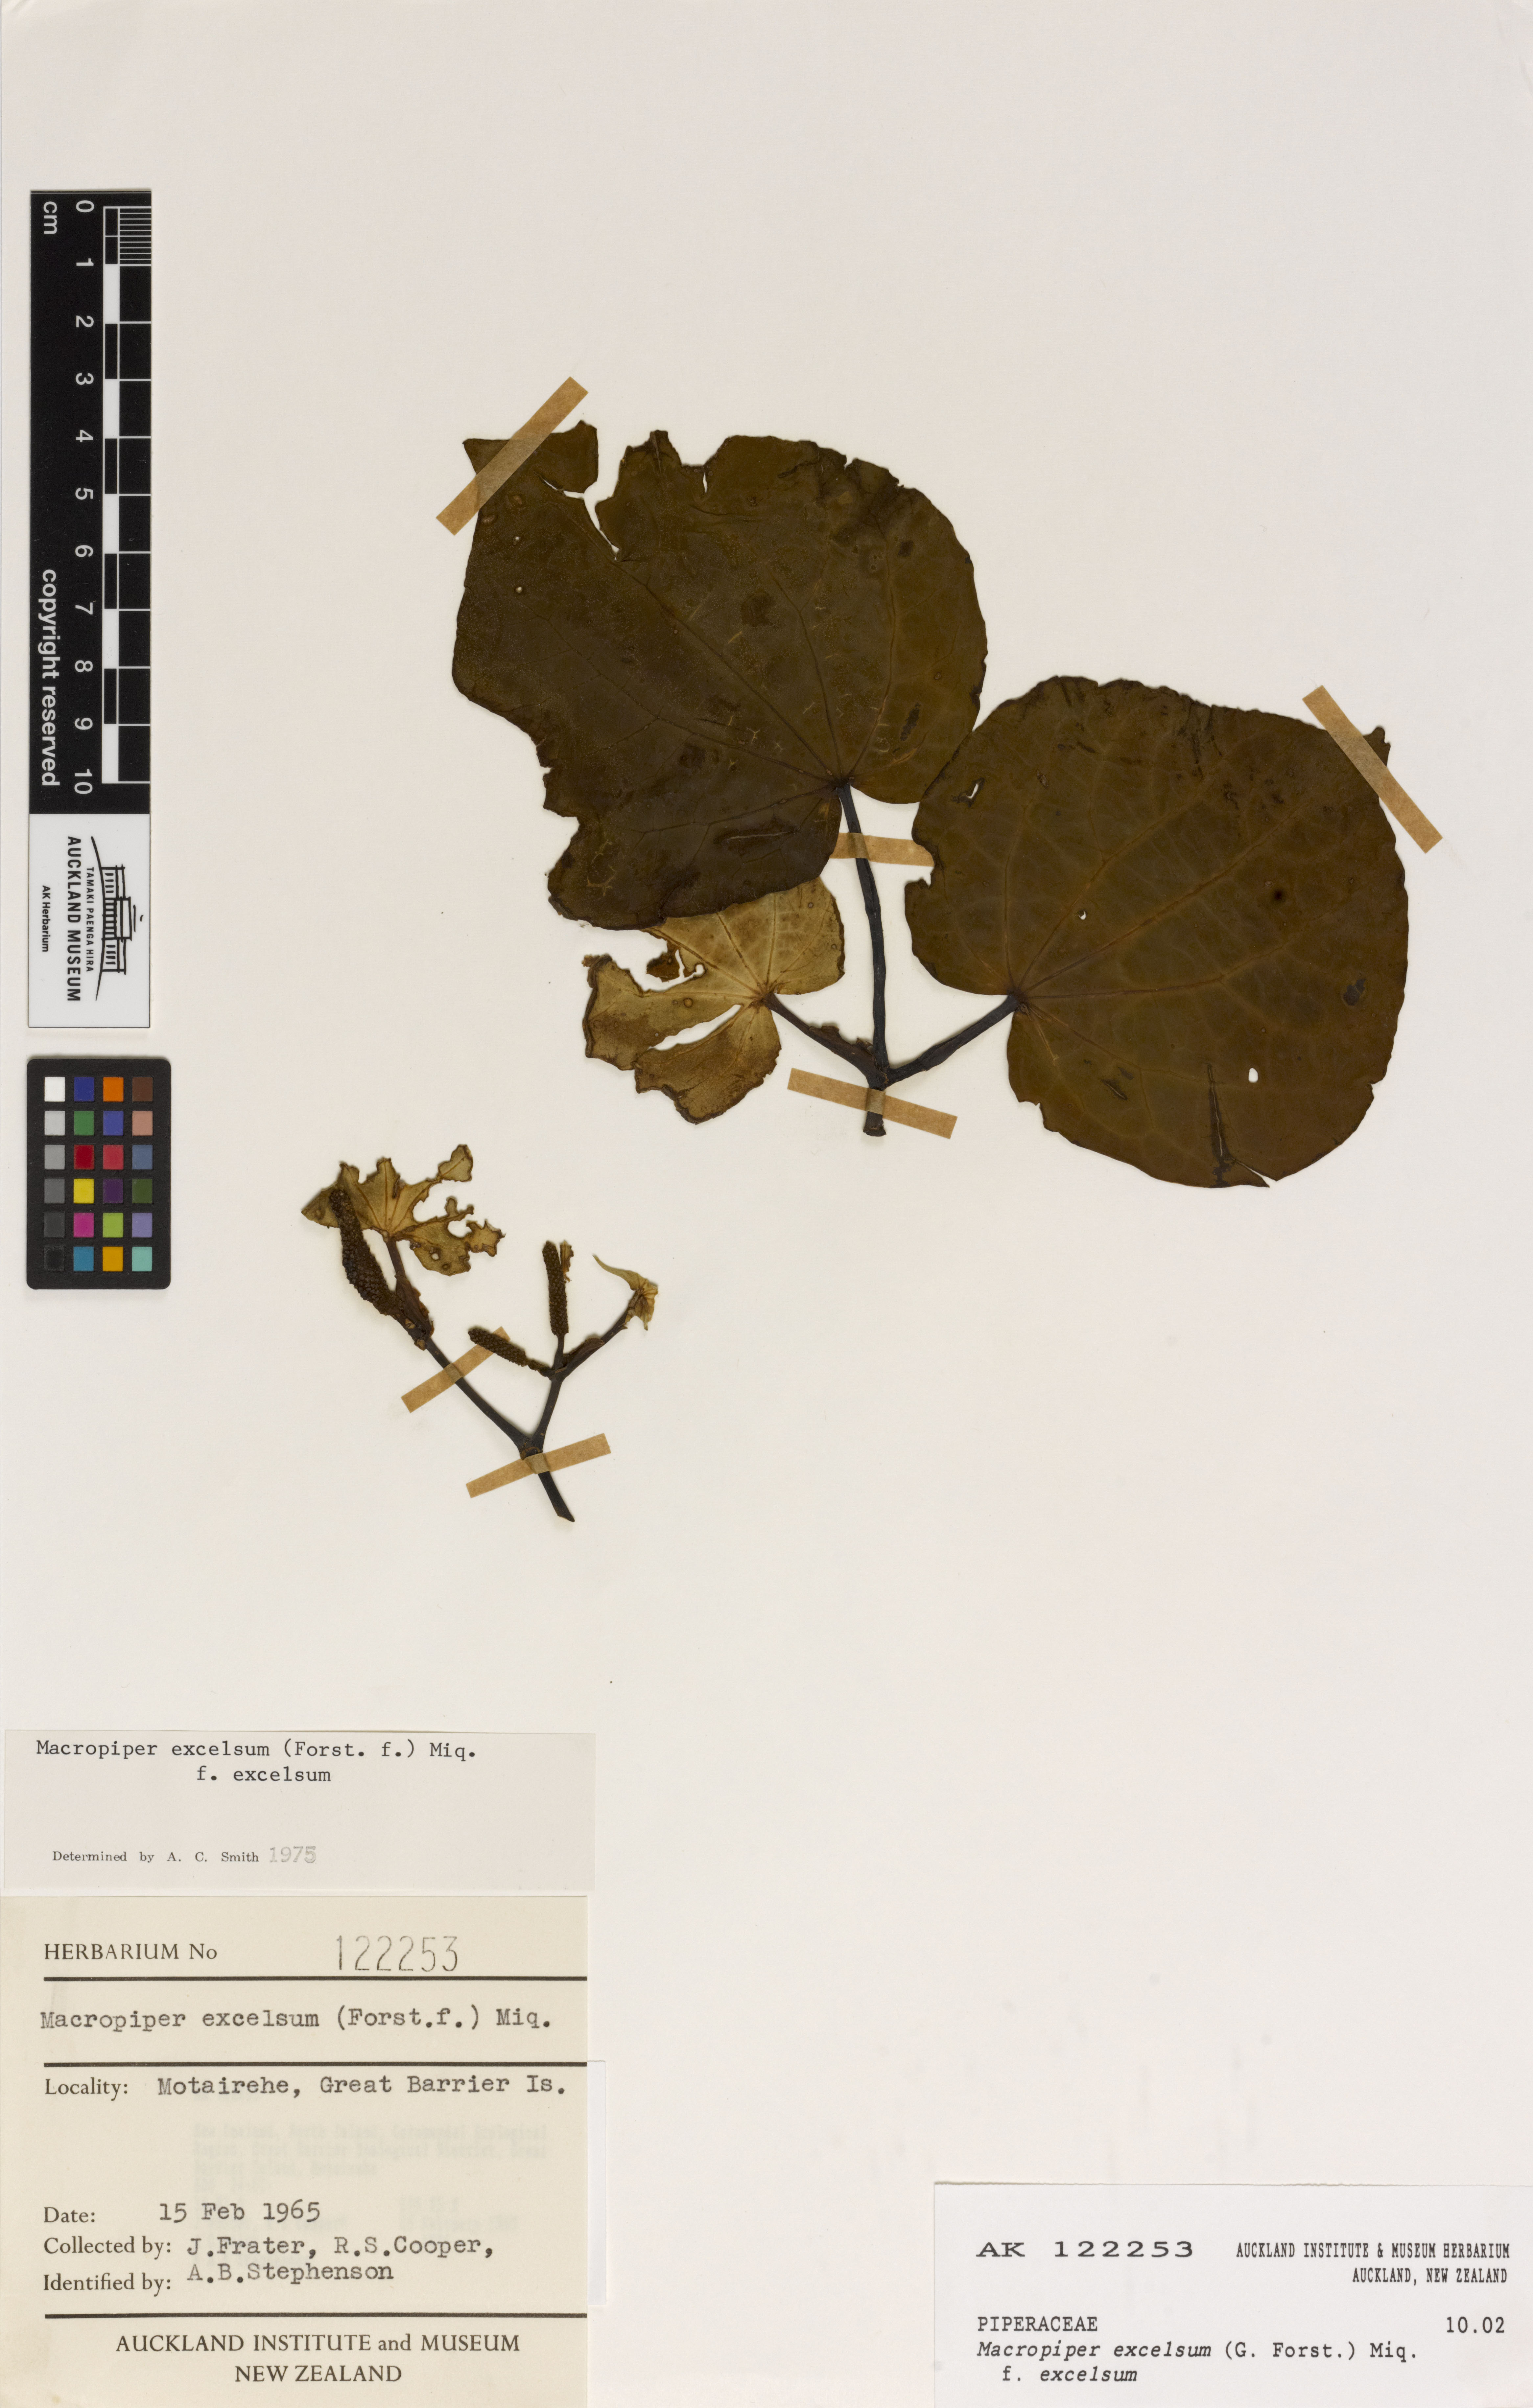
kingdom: Plantae
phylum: Tracheophyta
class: Magnoliopsida
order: Piperales
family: Piperaceae
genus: Macropiper
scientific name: Macropiper excelsum
